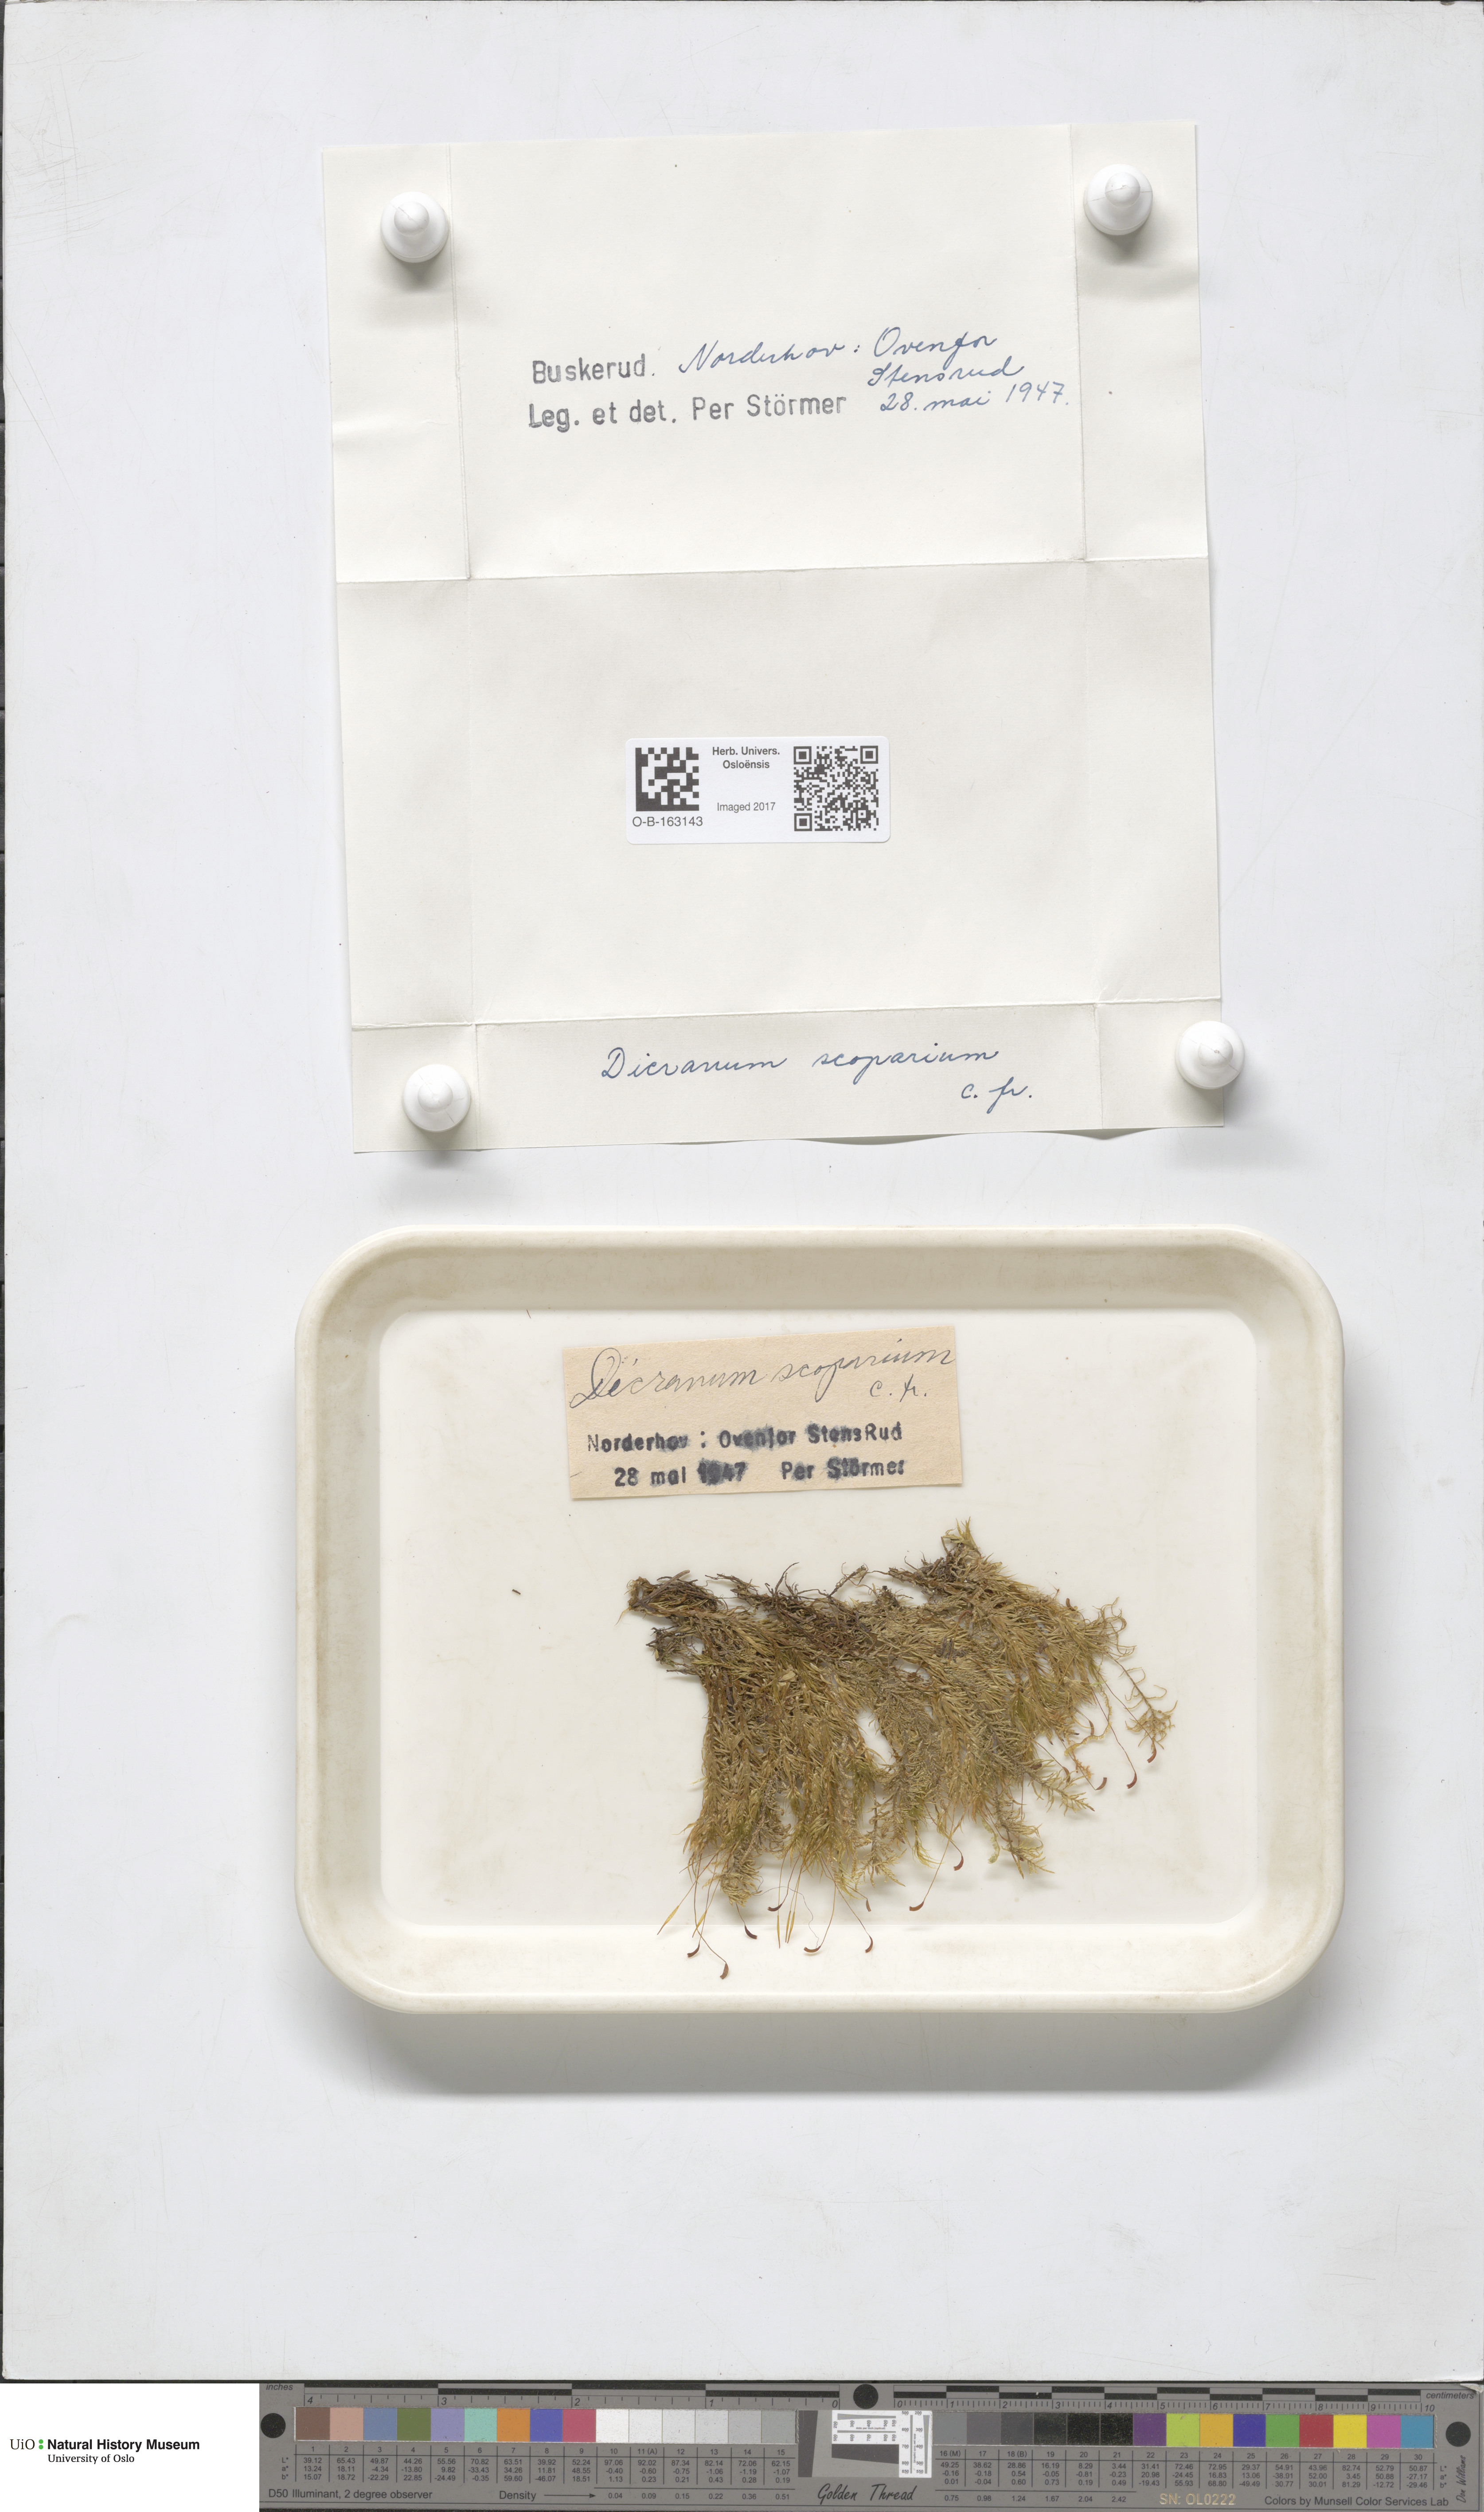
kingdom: Plantae
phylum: Bryophyta
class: Bryopsida
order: Dicranales
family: Dicranaceae
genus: Dicranum
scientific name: Dicranum scoparium
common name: Broom fork-moss
